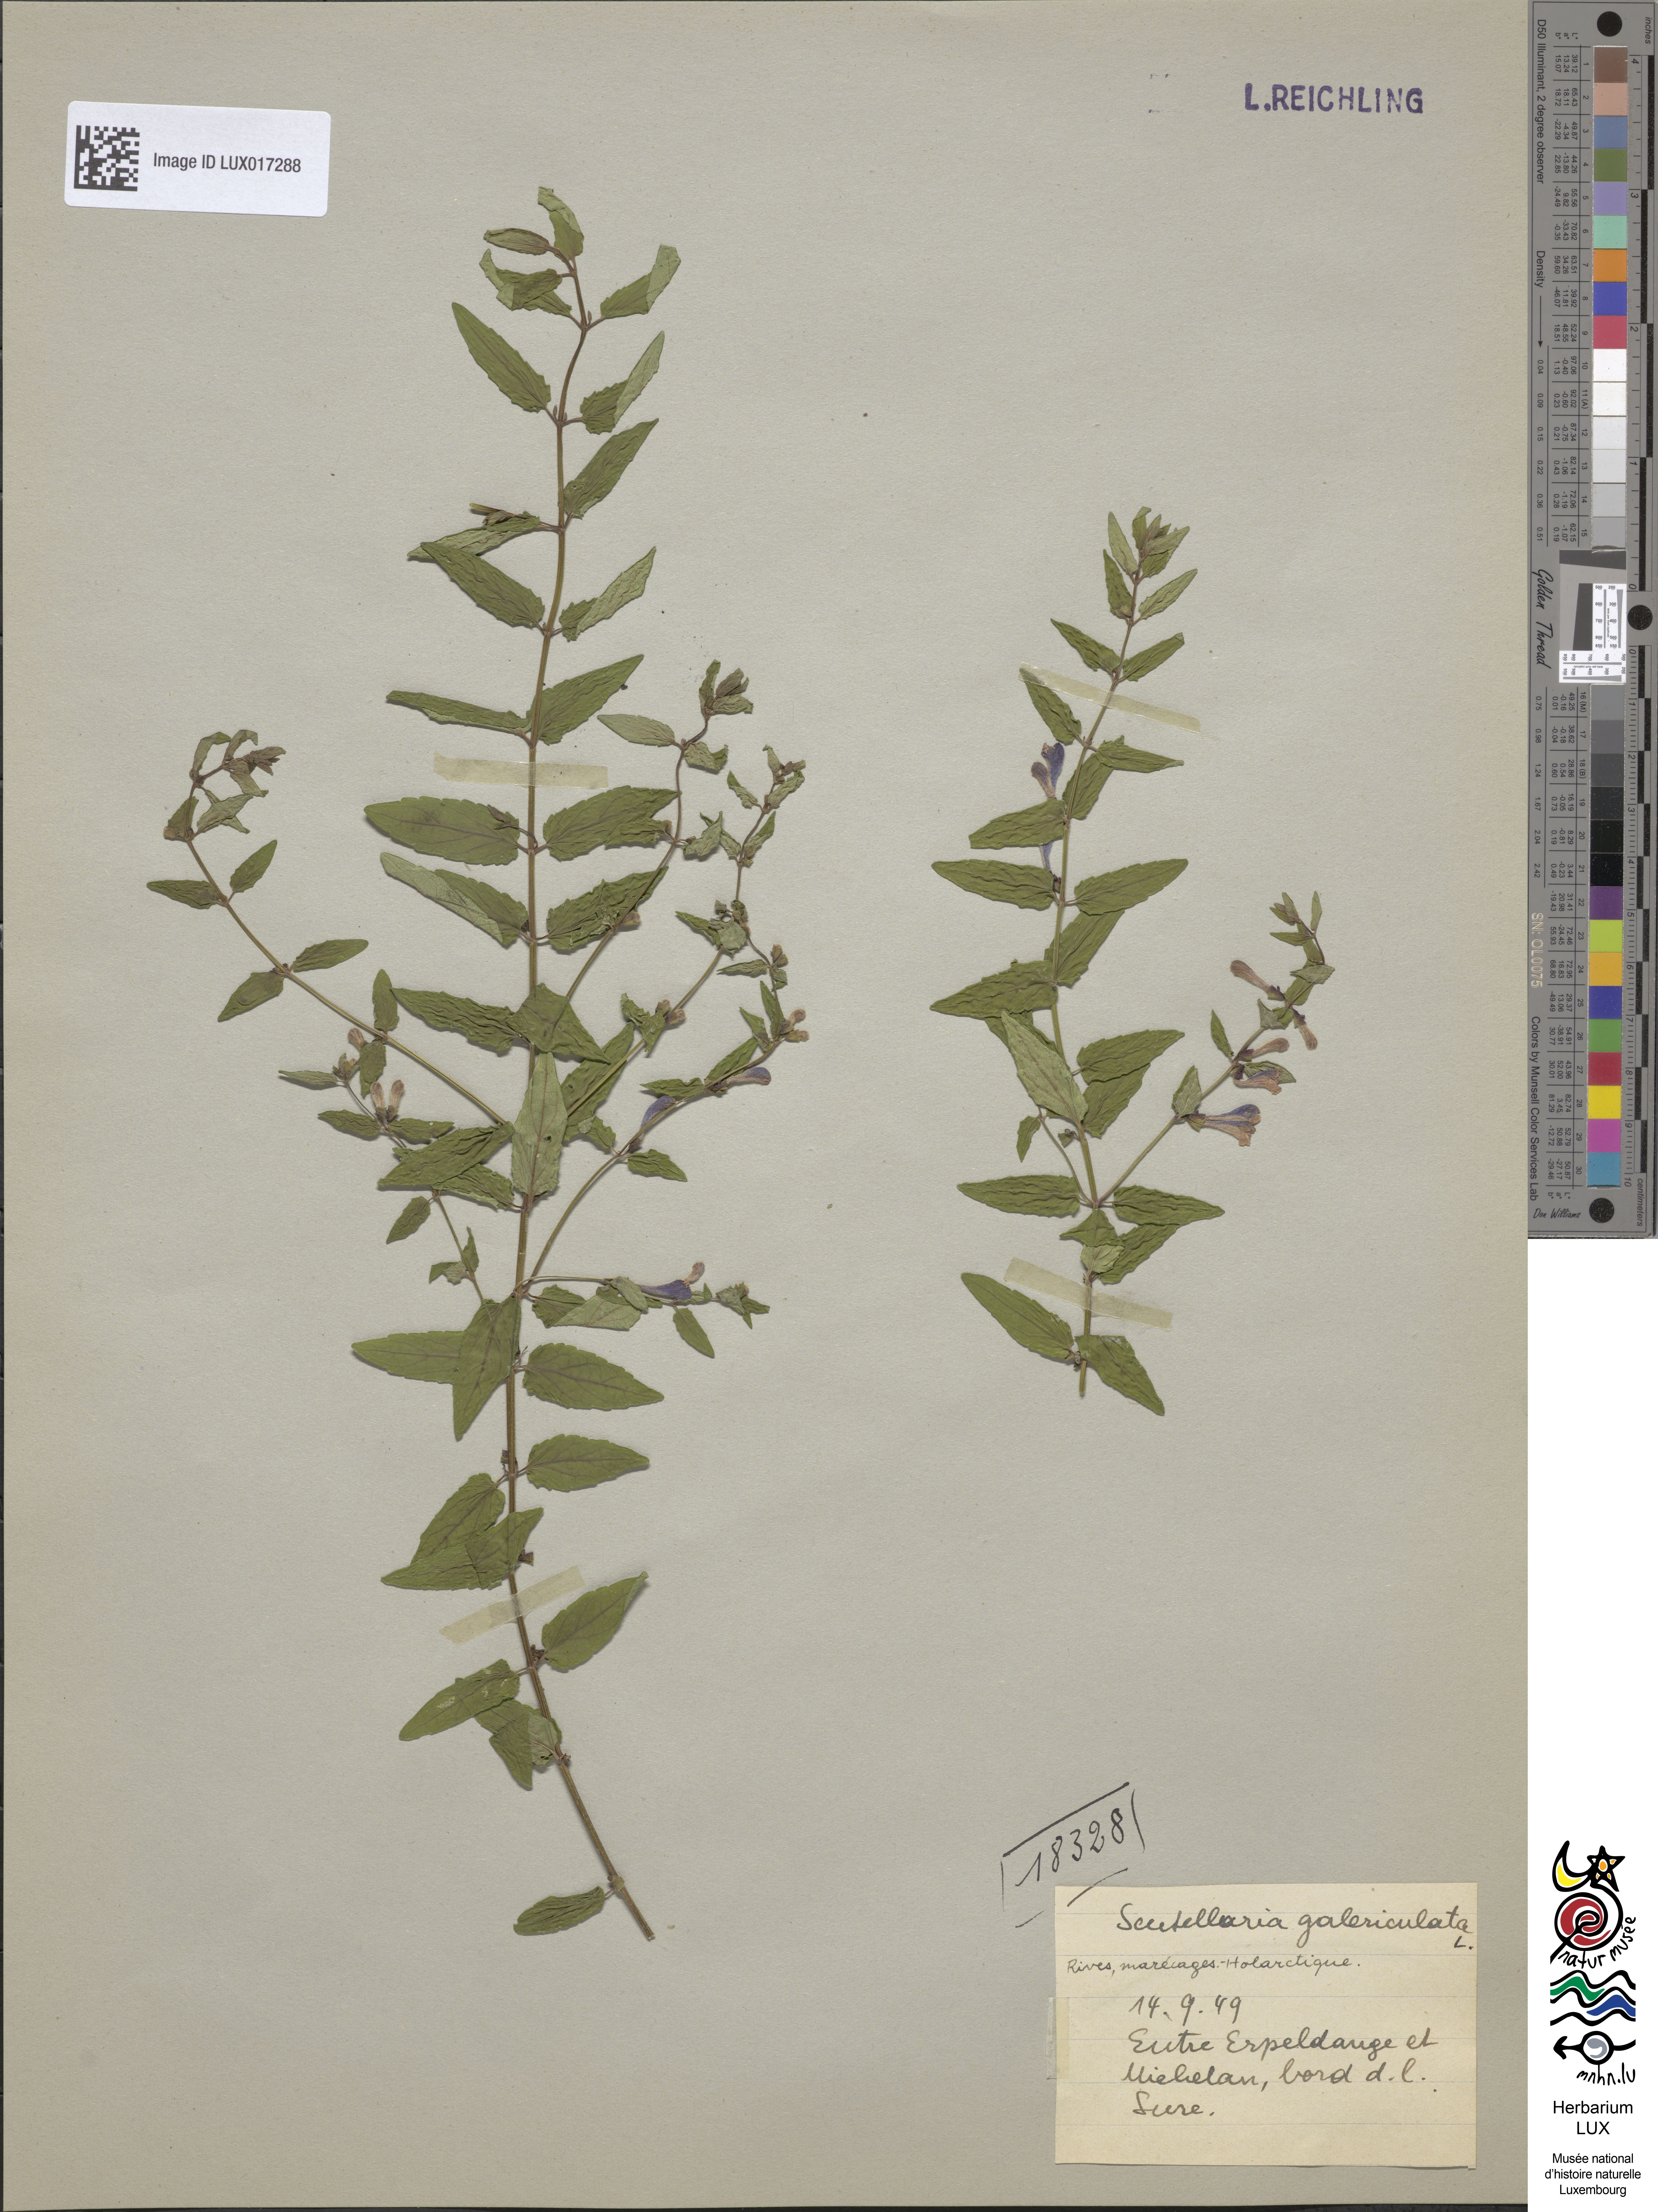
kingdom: Plantae
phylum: Tracheophyta
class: Magnoliopsida
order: Lamiales
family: Lamiaceae
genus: Scutellaria
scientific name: Scutellaria galericulata
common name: Skullcap
